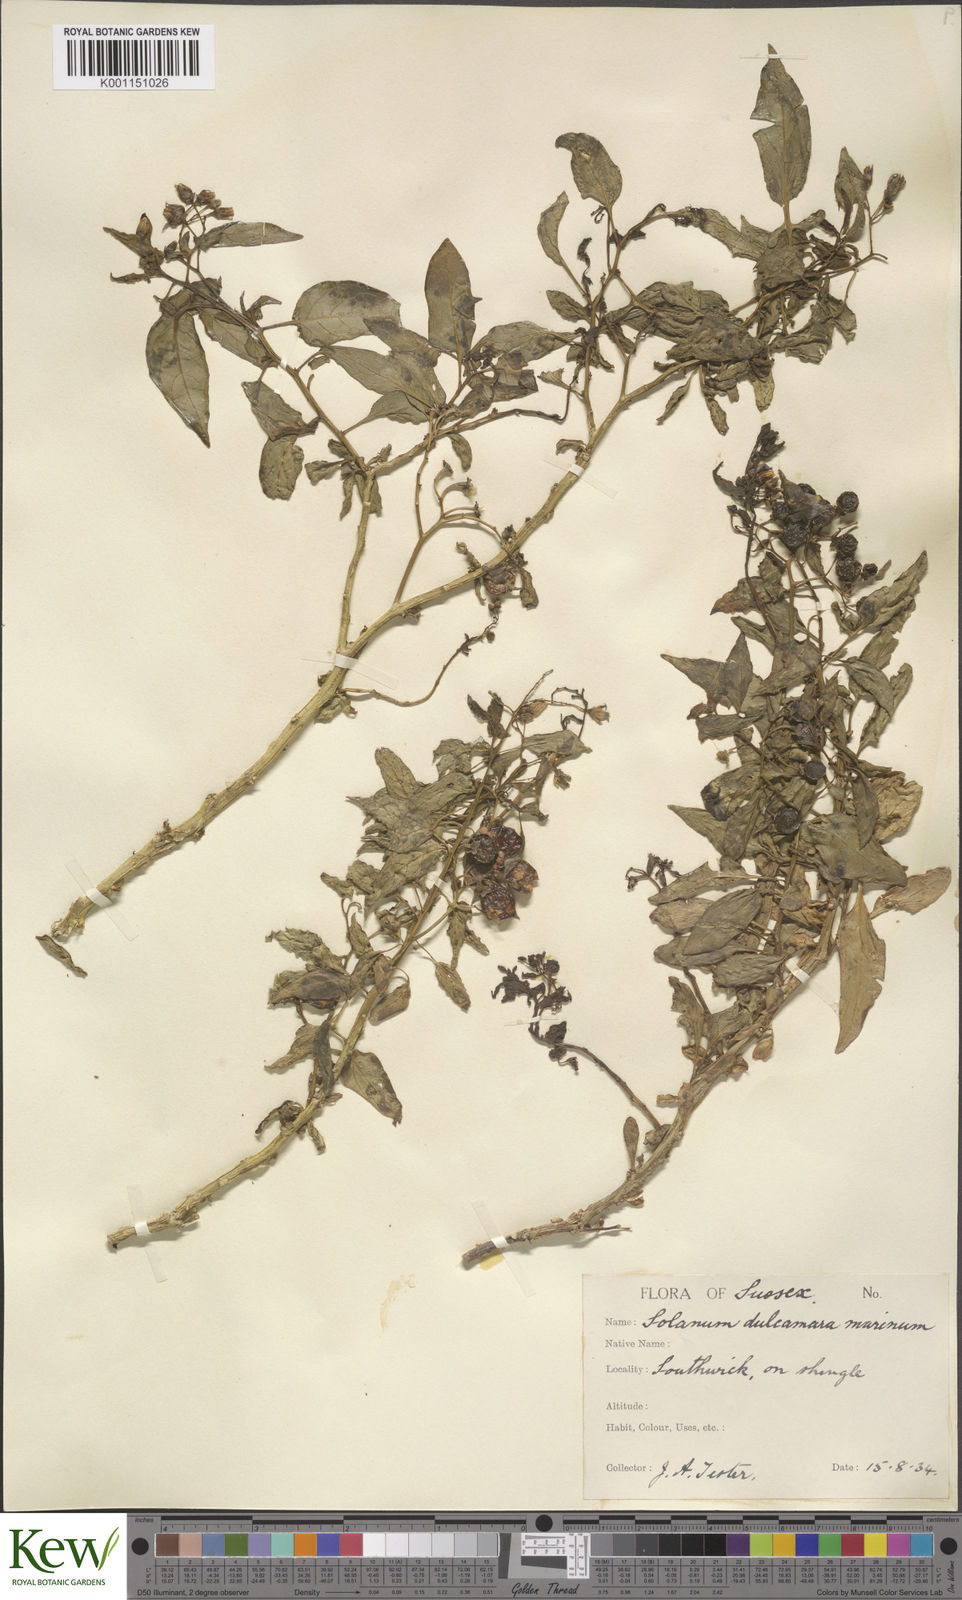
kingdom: Plantae
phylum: Tracheophyta
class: Magnoliopsida
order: Solanales
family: Solanaceae
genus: Solanum
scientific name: Solanum dulcamara
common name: Climbing nightshade
